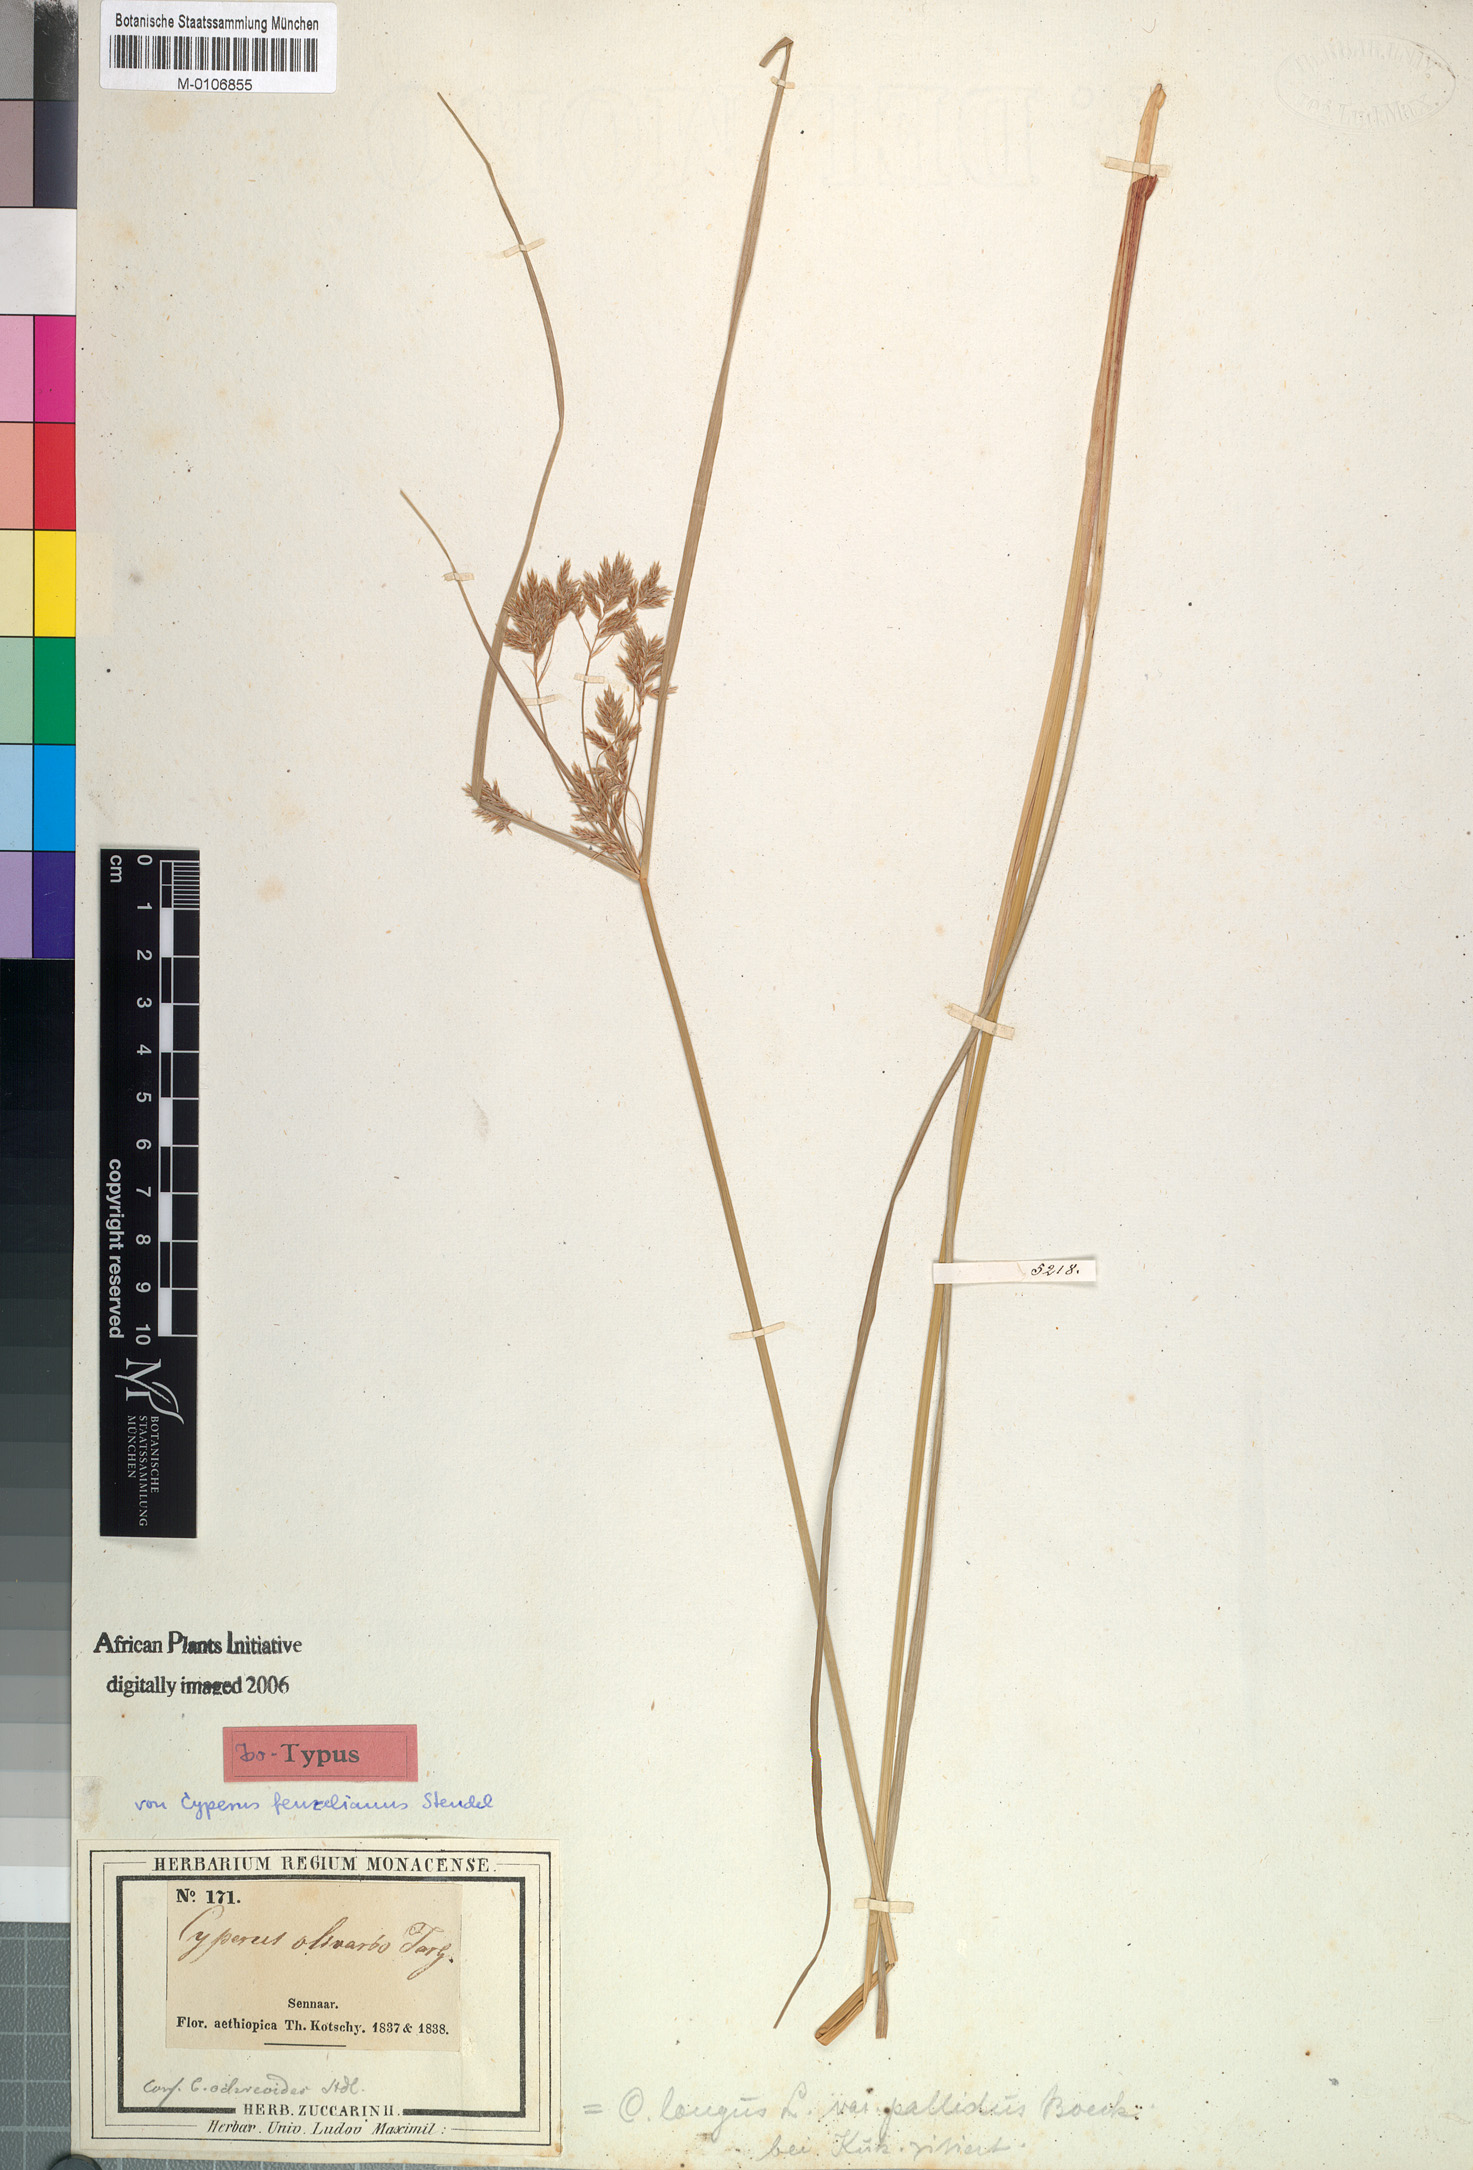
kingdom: Plantae
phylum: Tracheophyta
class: Liliopsida
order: Poales
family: Cyperaceae
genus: Cyperus
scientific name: Cyperus longus
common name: Galingale
